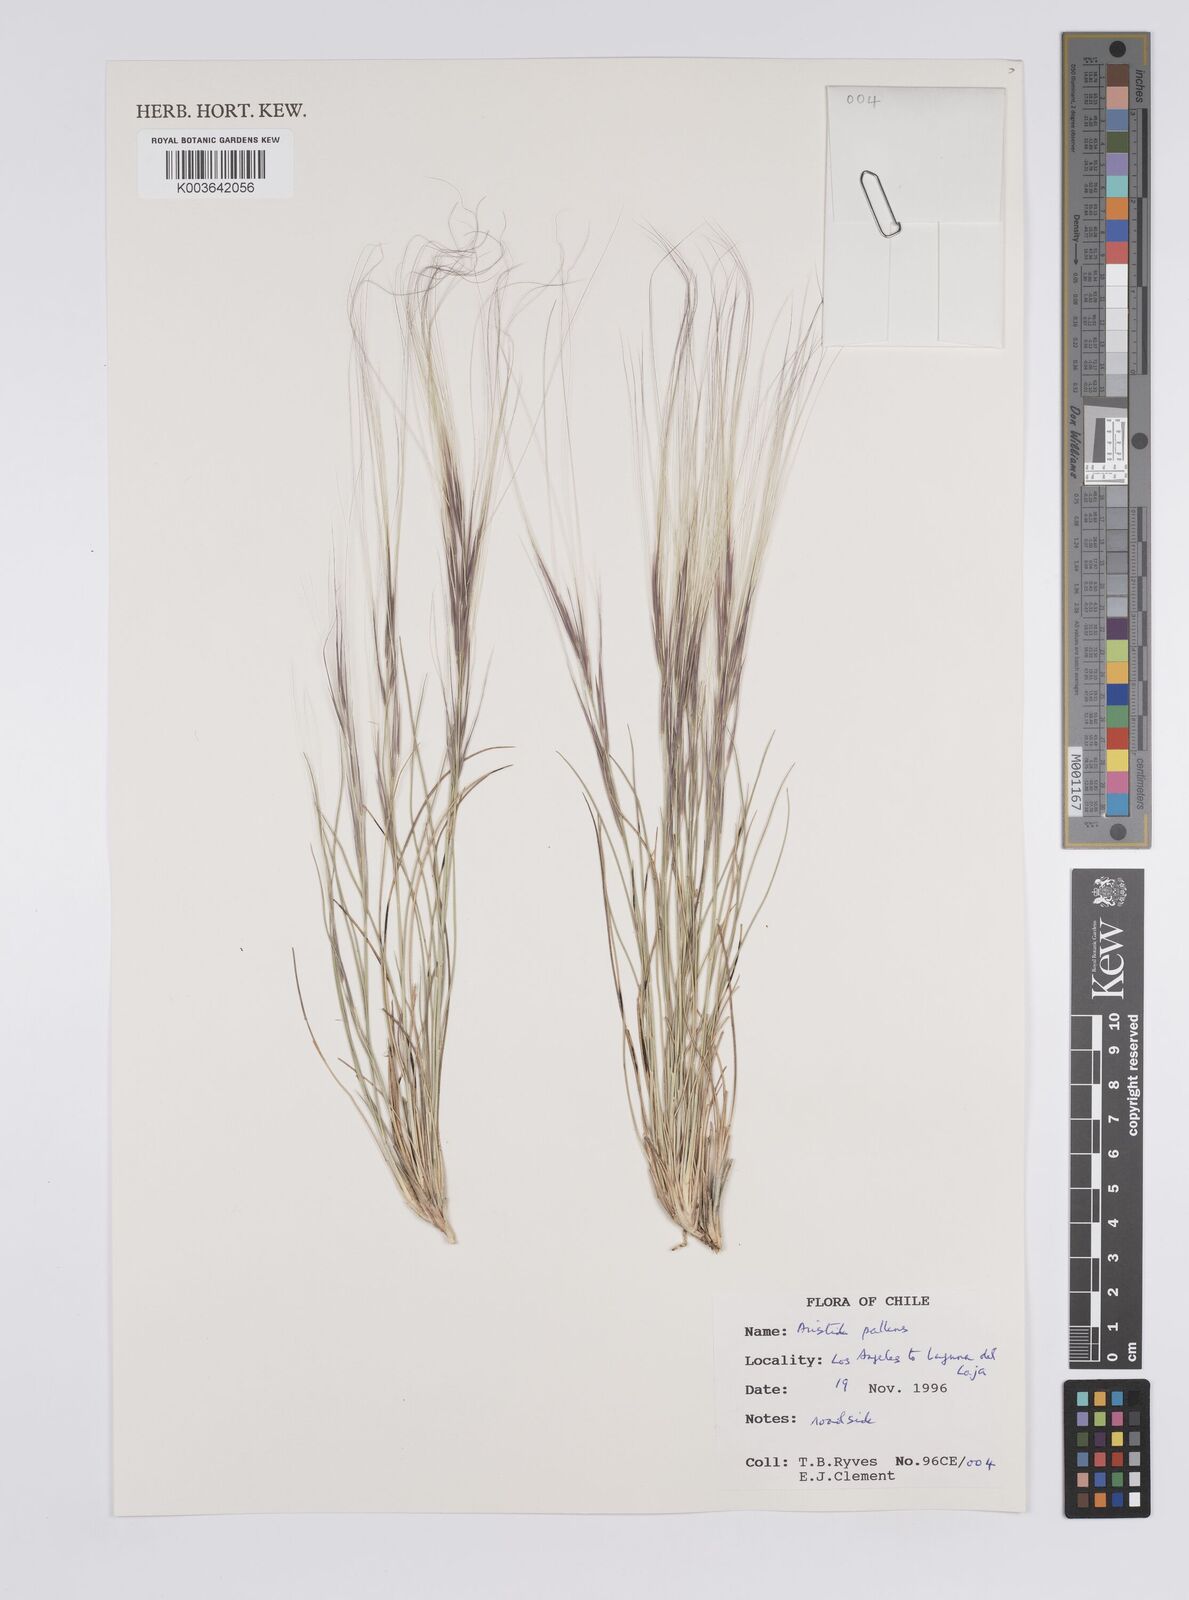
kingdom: Plantae
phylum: Tracheophyta
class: Liliopsida
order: Poales
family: Poaceae
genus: Aristida
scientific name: Aristida pallens
